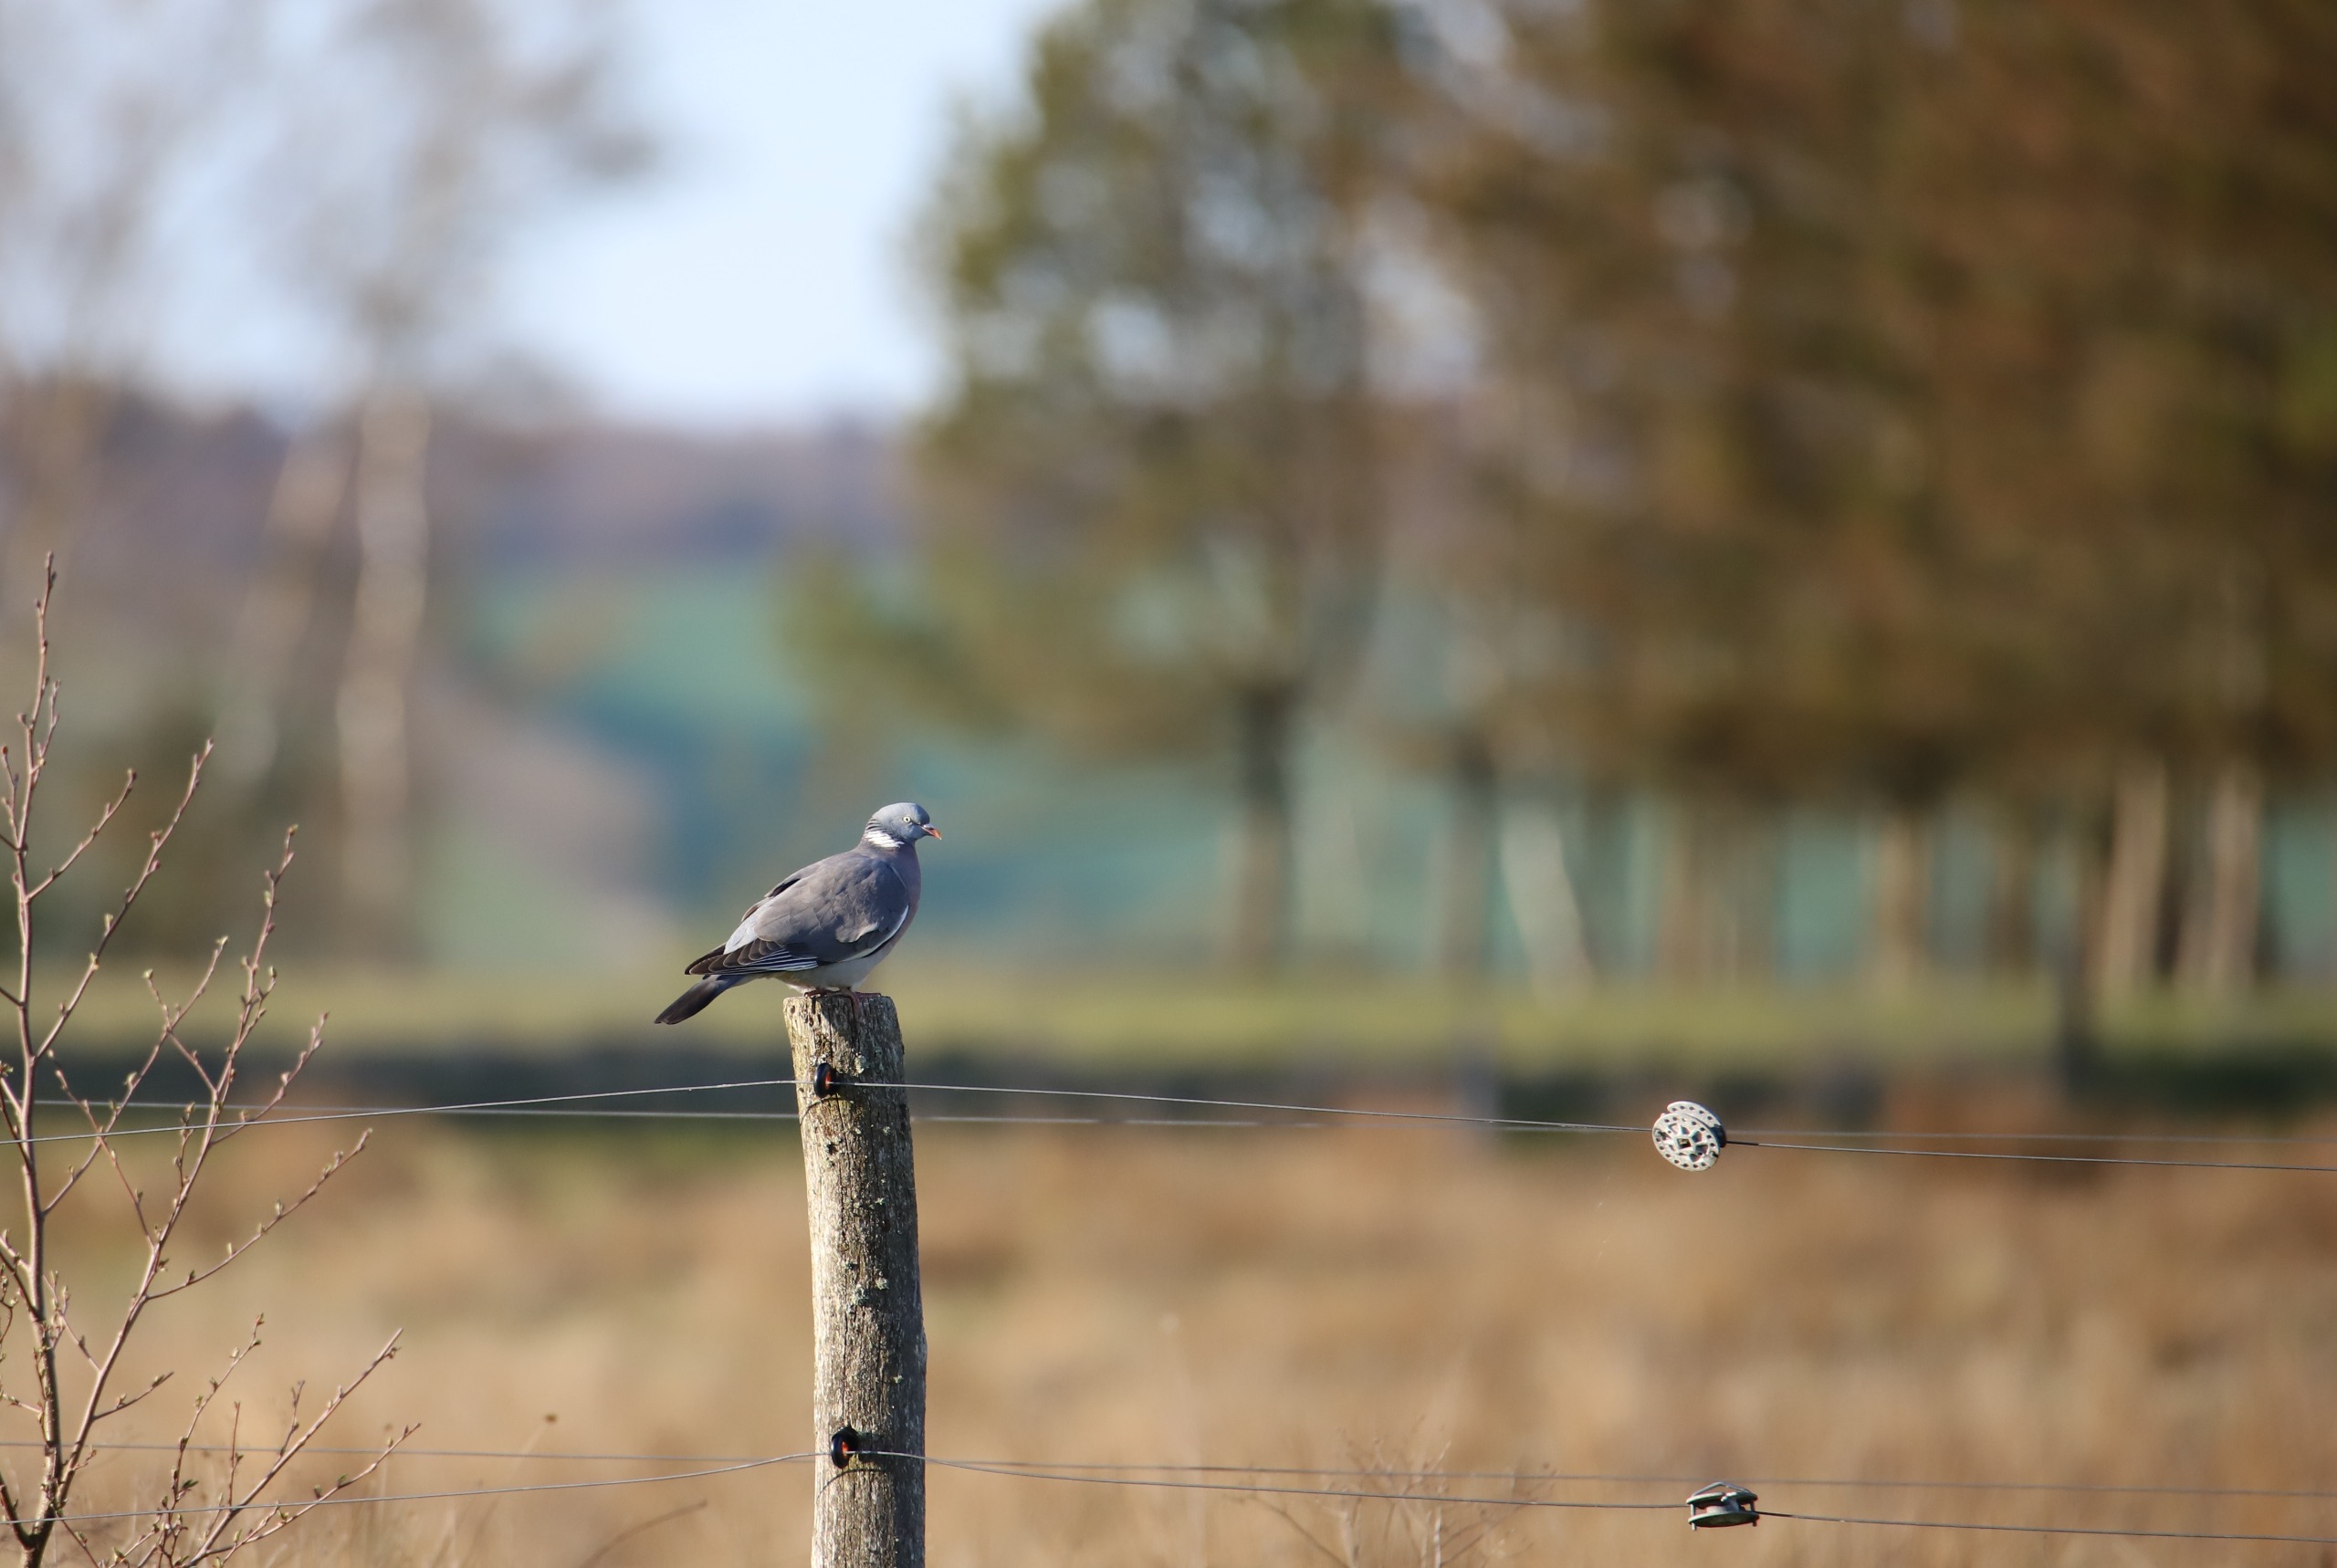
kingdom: Animalia
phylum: Chordata
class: Aves
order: Columbiformes
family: Columbidae
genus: Columba
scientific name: Columba palumbus
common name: Ringdue
